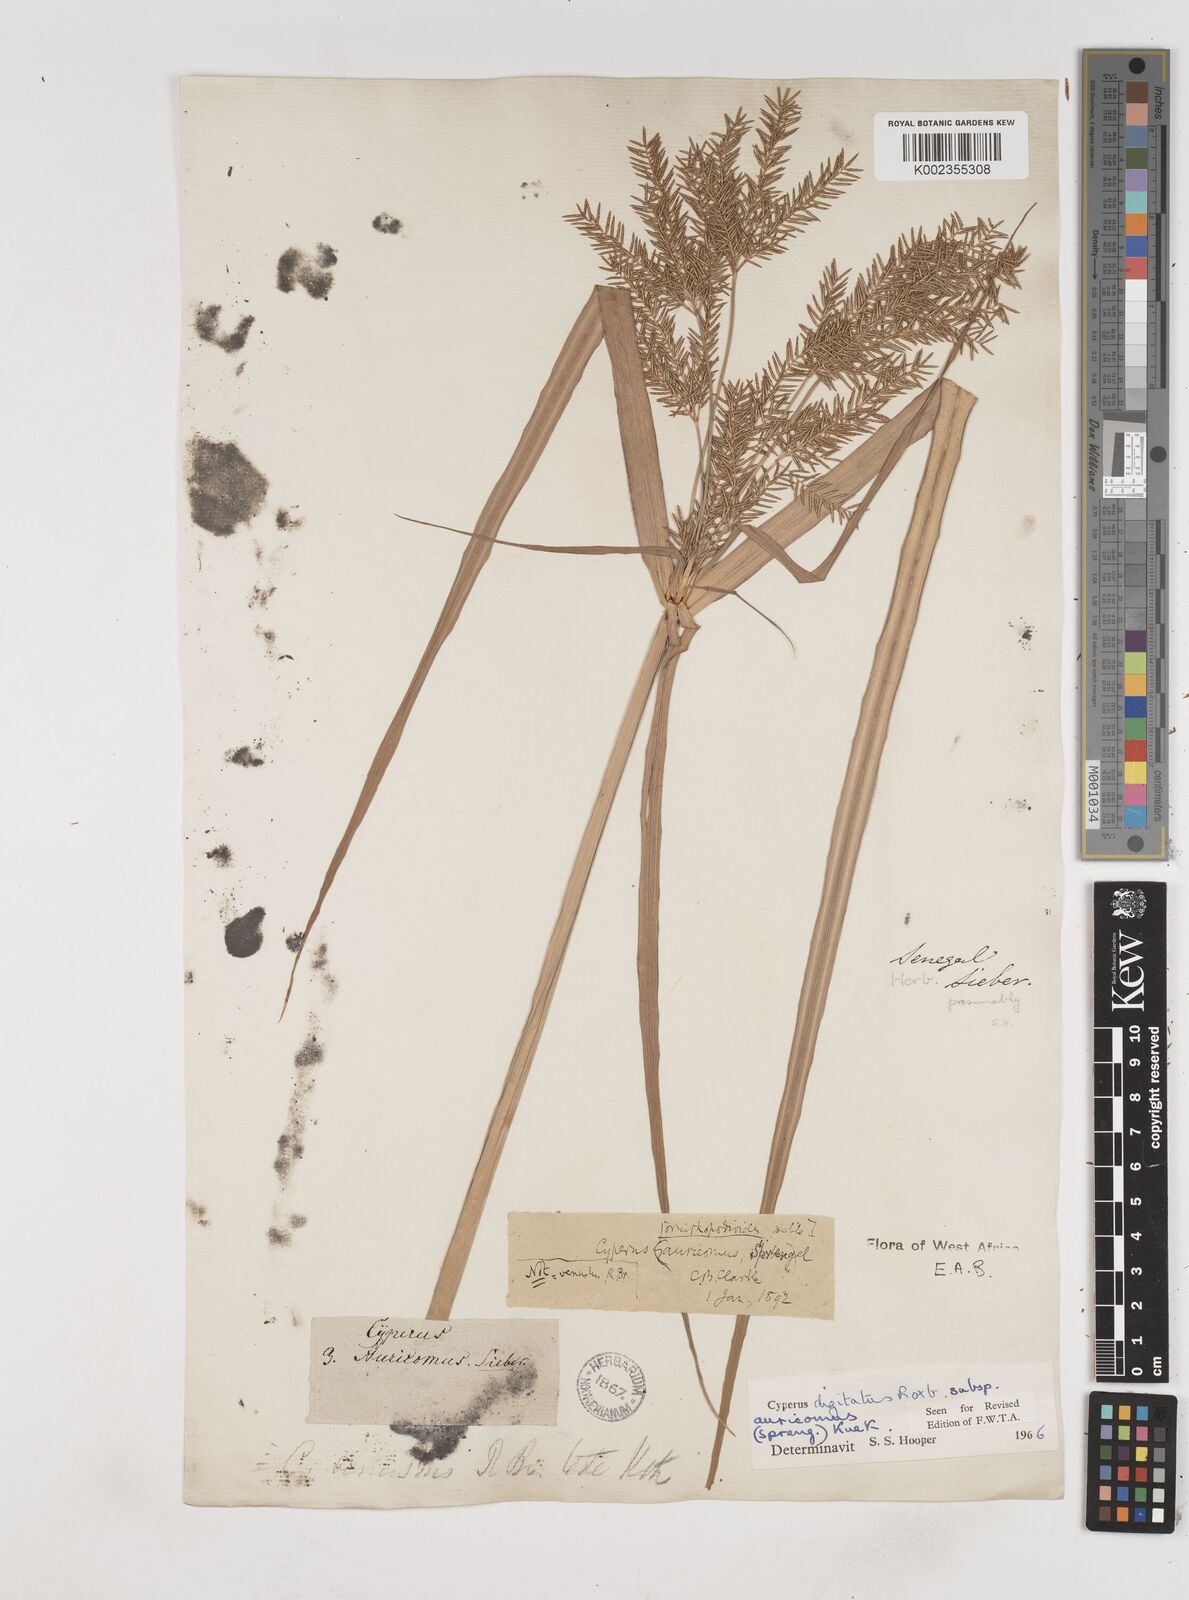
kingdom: Plantae
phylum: Tracheophyta
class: Liliopsida
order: Poales
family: Cyperaceae
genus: Cyperus
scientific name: Cyperus digitatus
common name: Finger flatsedge
